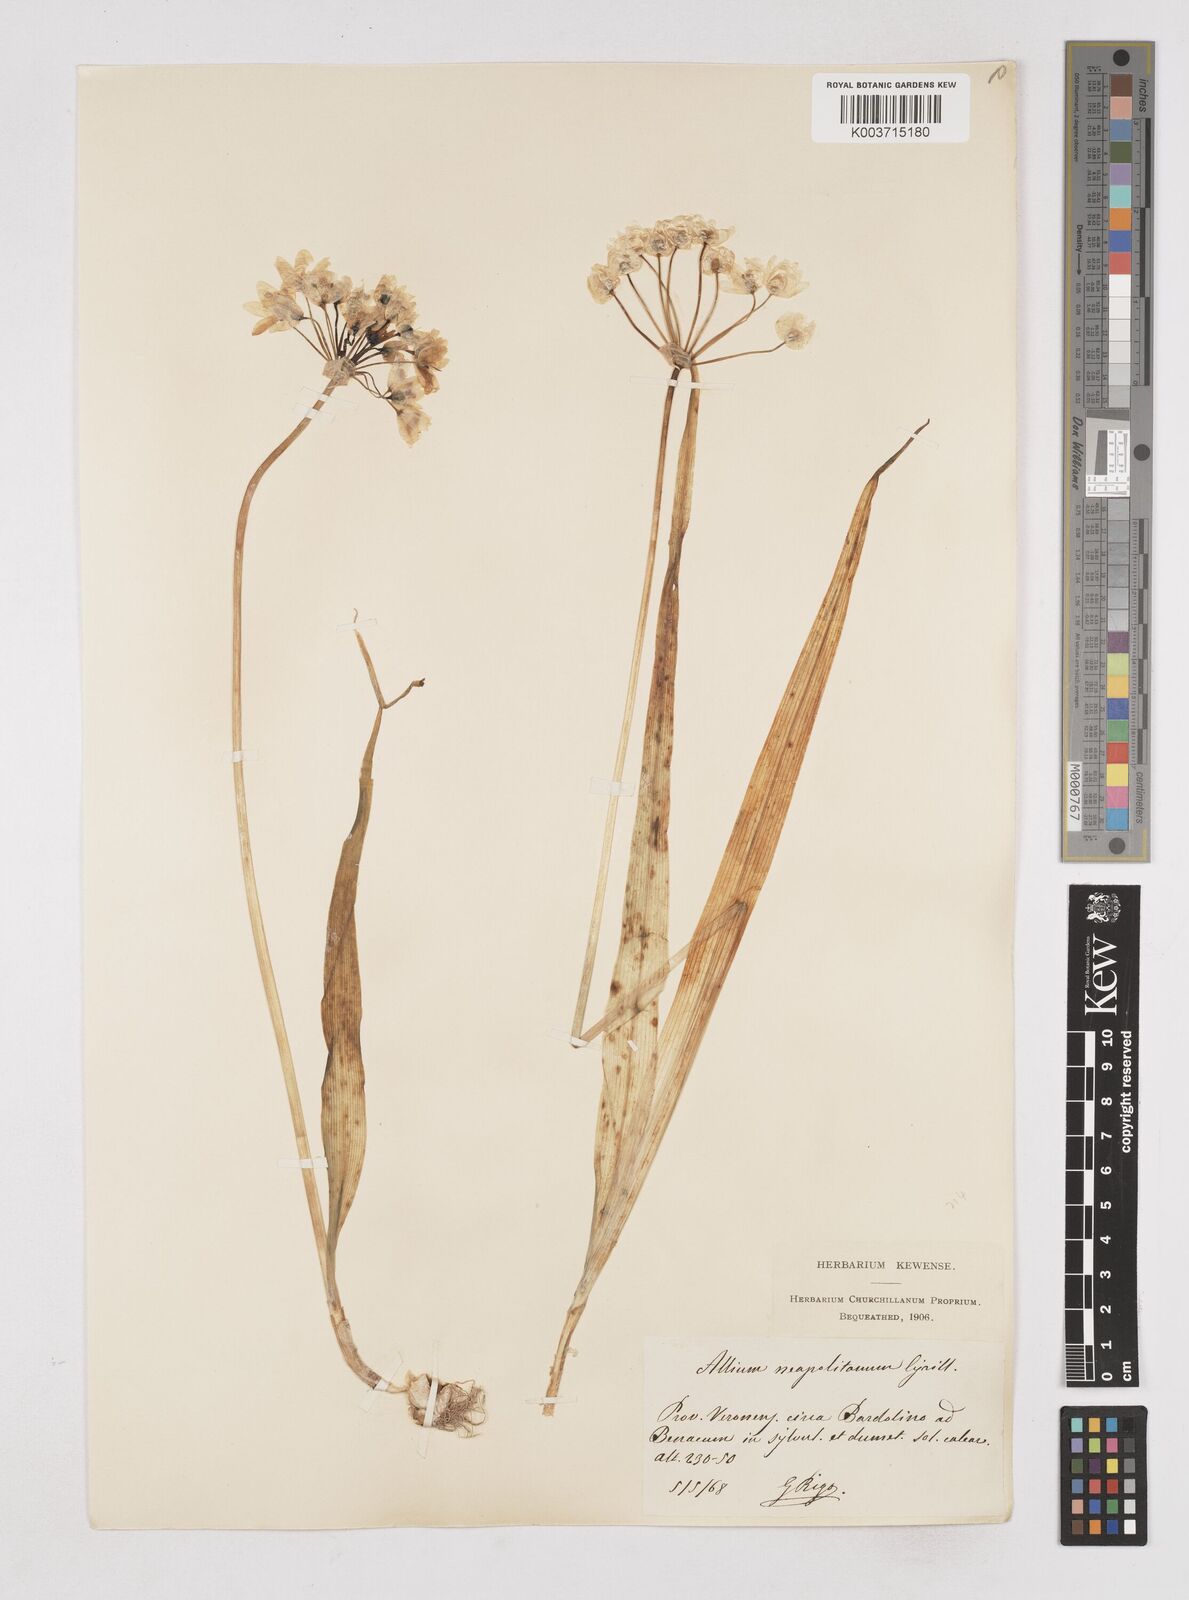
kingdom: Plantae
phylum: Tracheophyta
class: Liliopsida
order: Asparagales
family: Amaryllidaceae
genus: Allium
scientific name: Allium neapolitanum
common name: Neapolitan garlic
